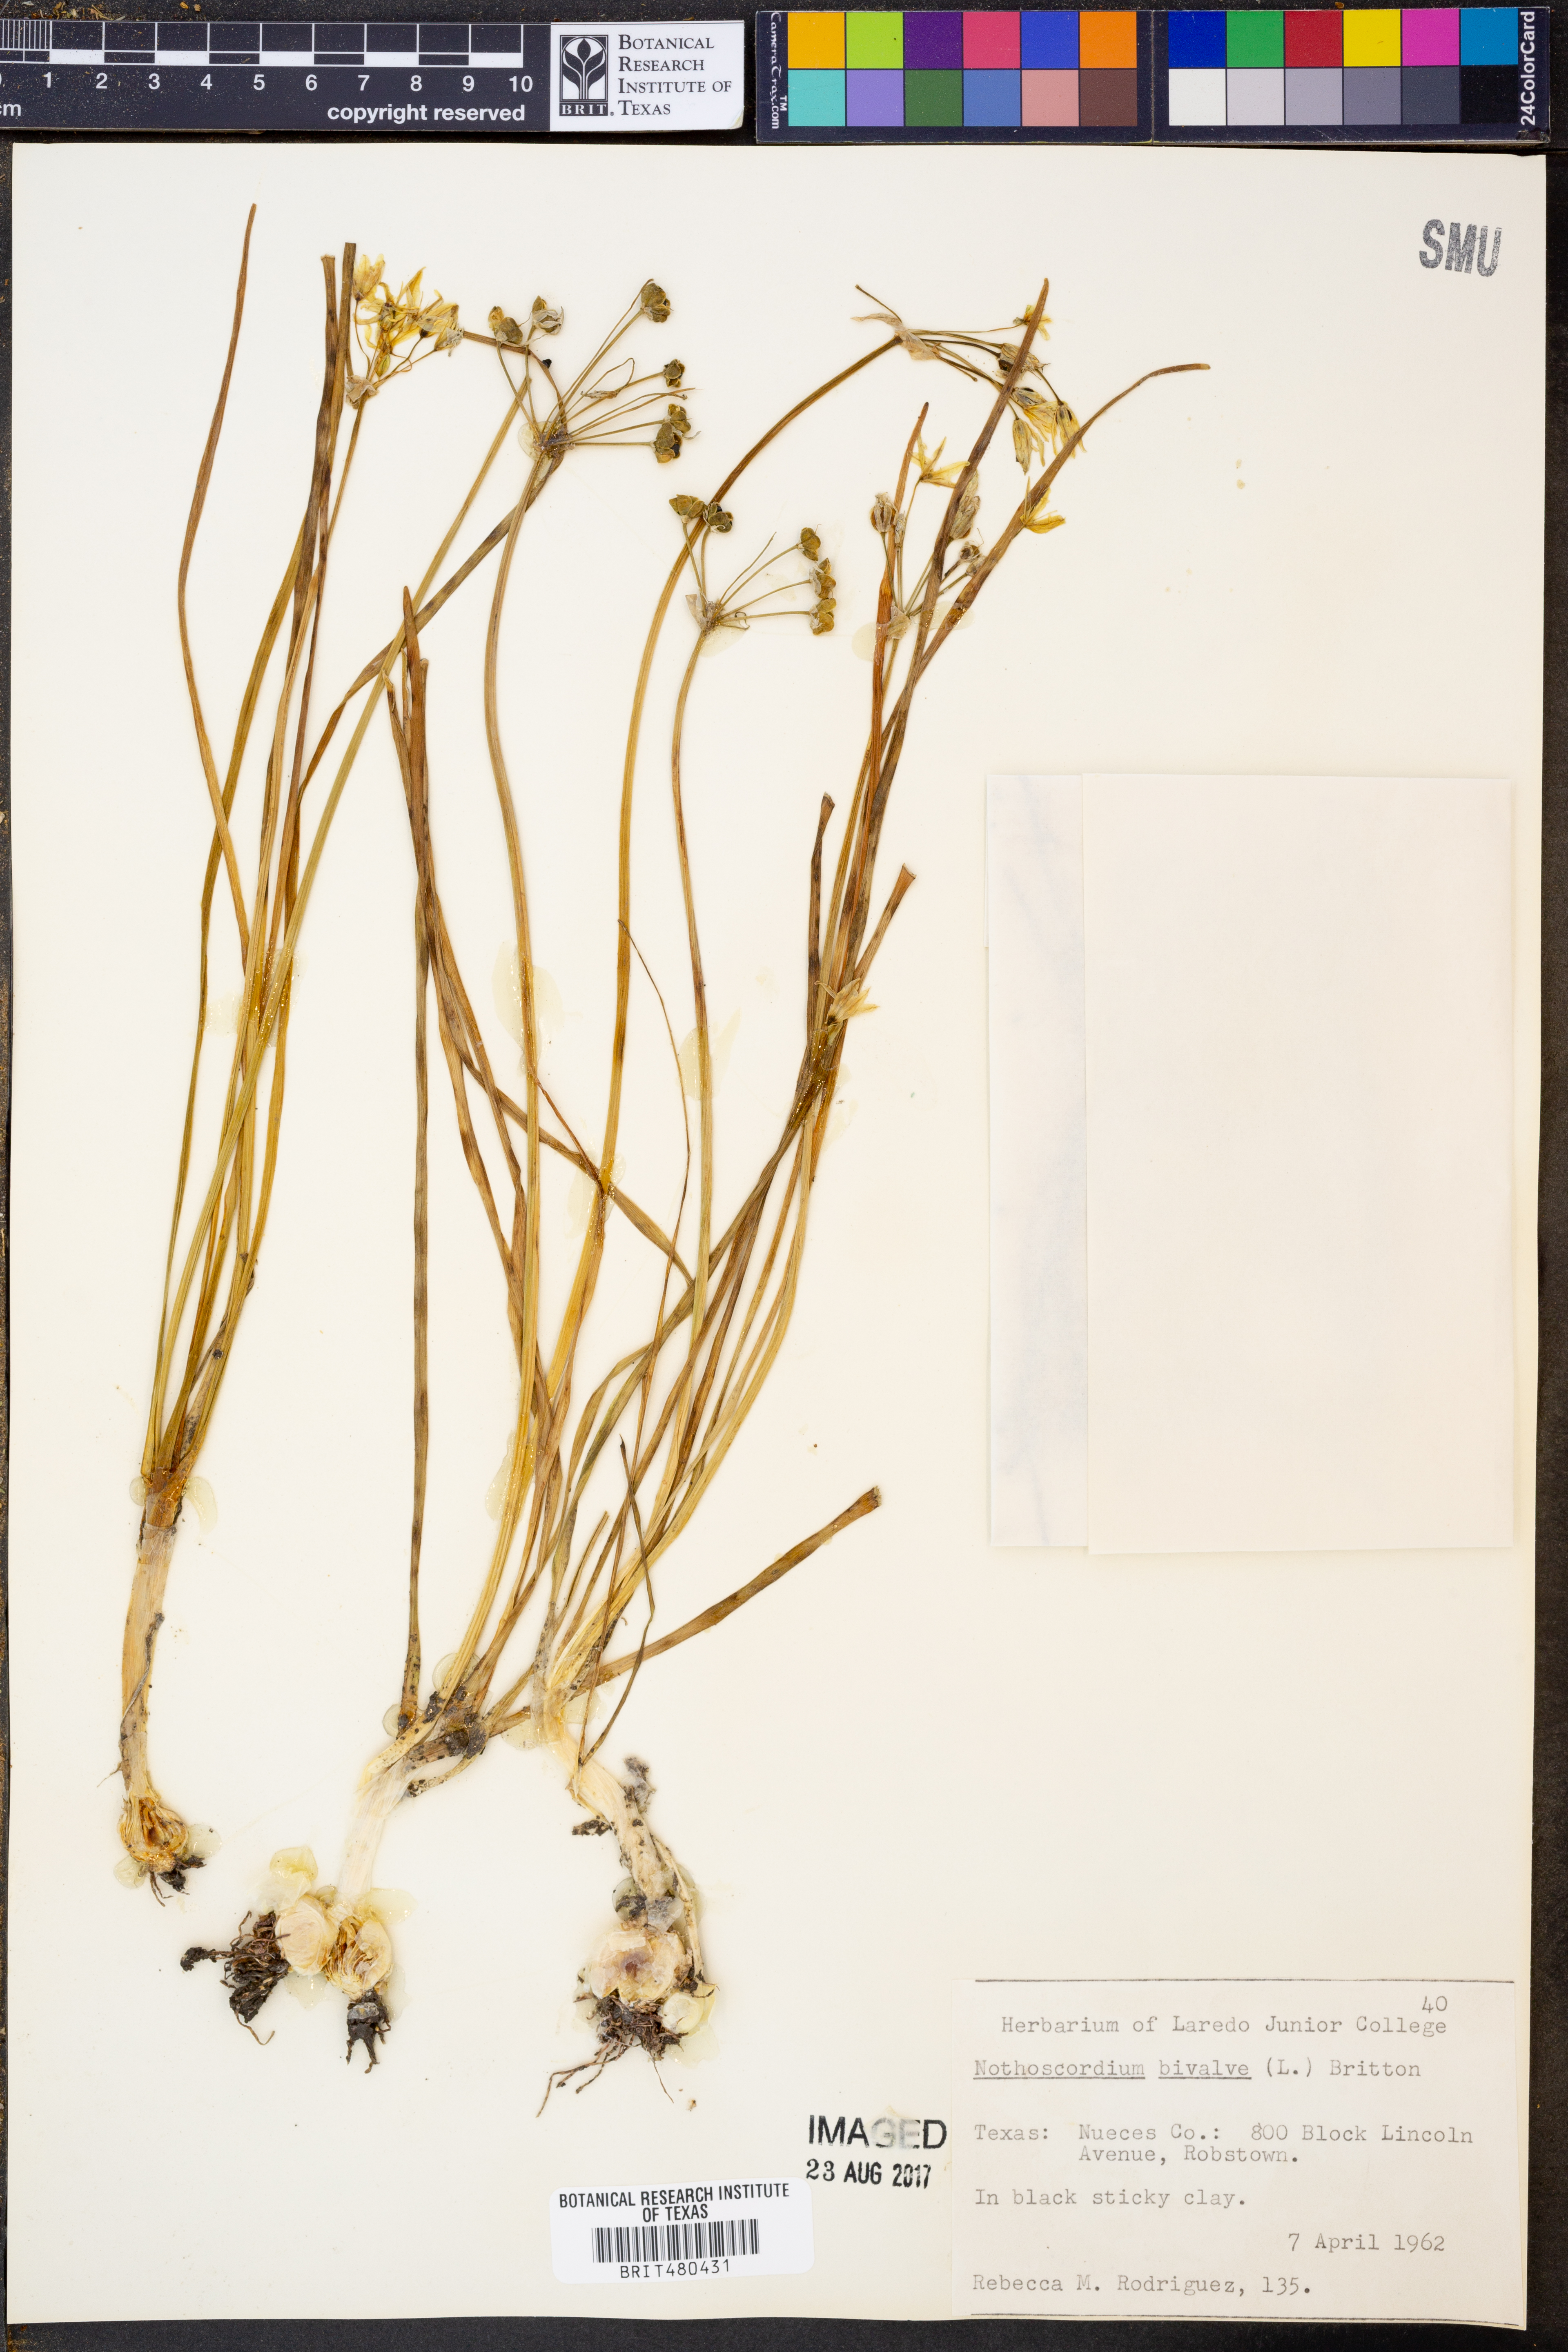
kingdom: Plantae
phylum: Tracheophyta
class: Liliopsida
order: Asparagales
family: Amaryllidaceae
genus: Nothoscordum
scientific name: Nothoscordum bivalve
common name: Crow-poison
